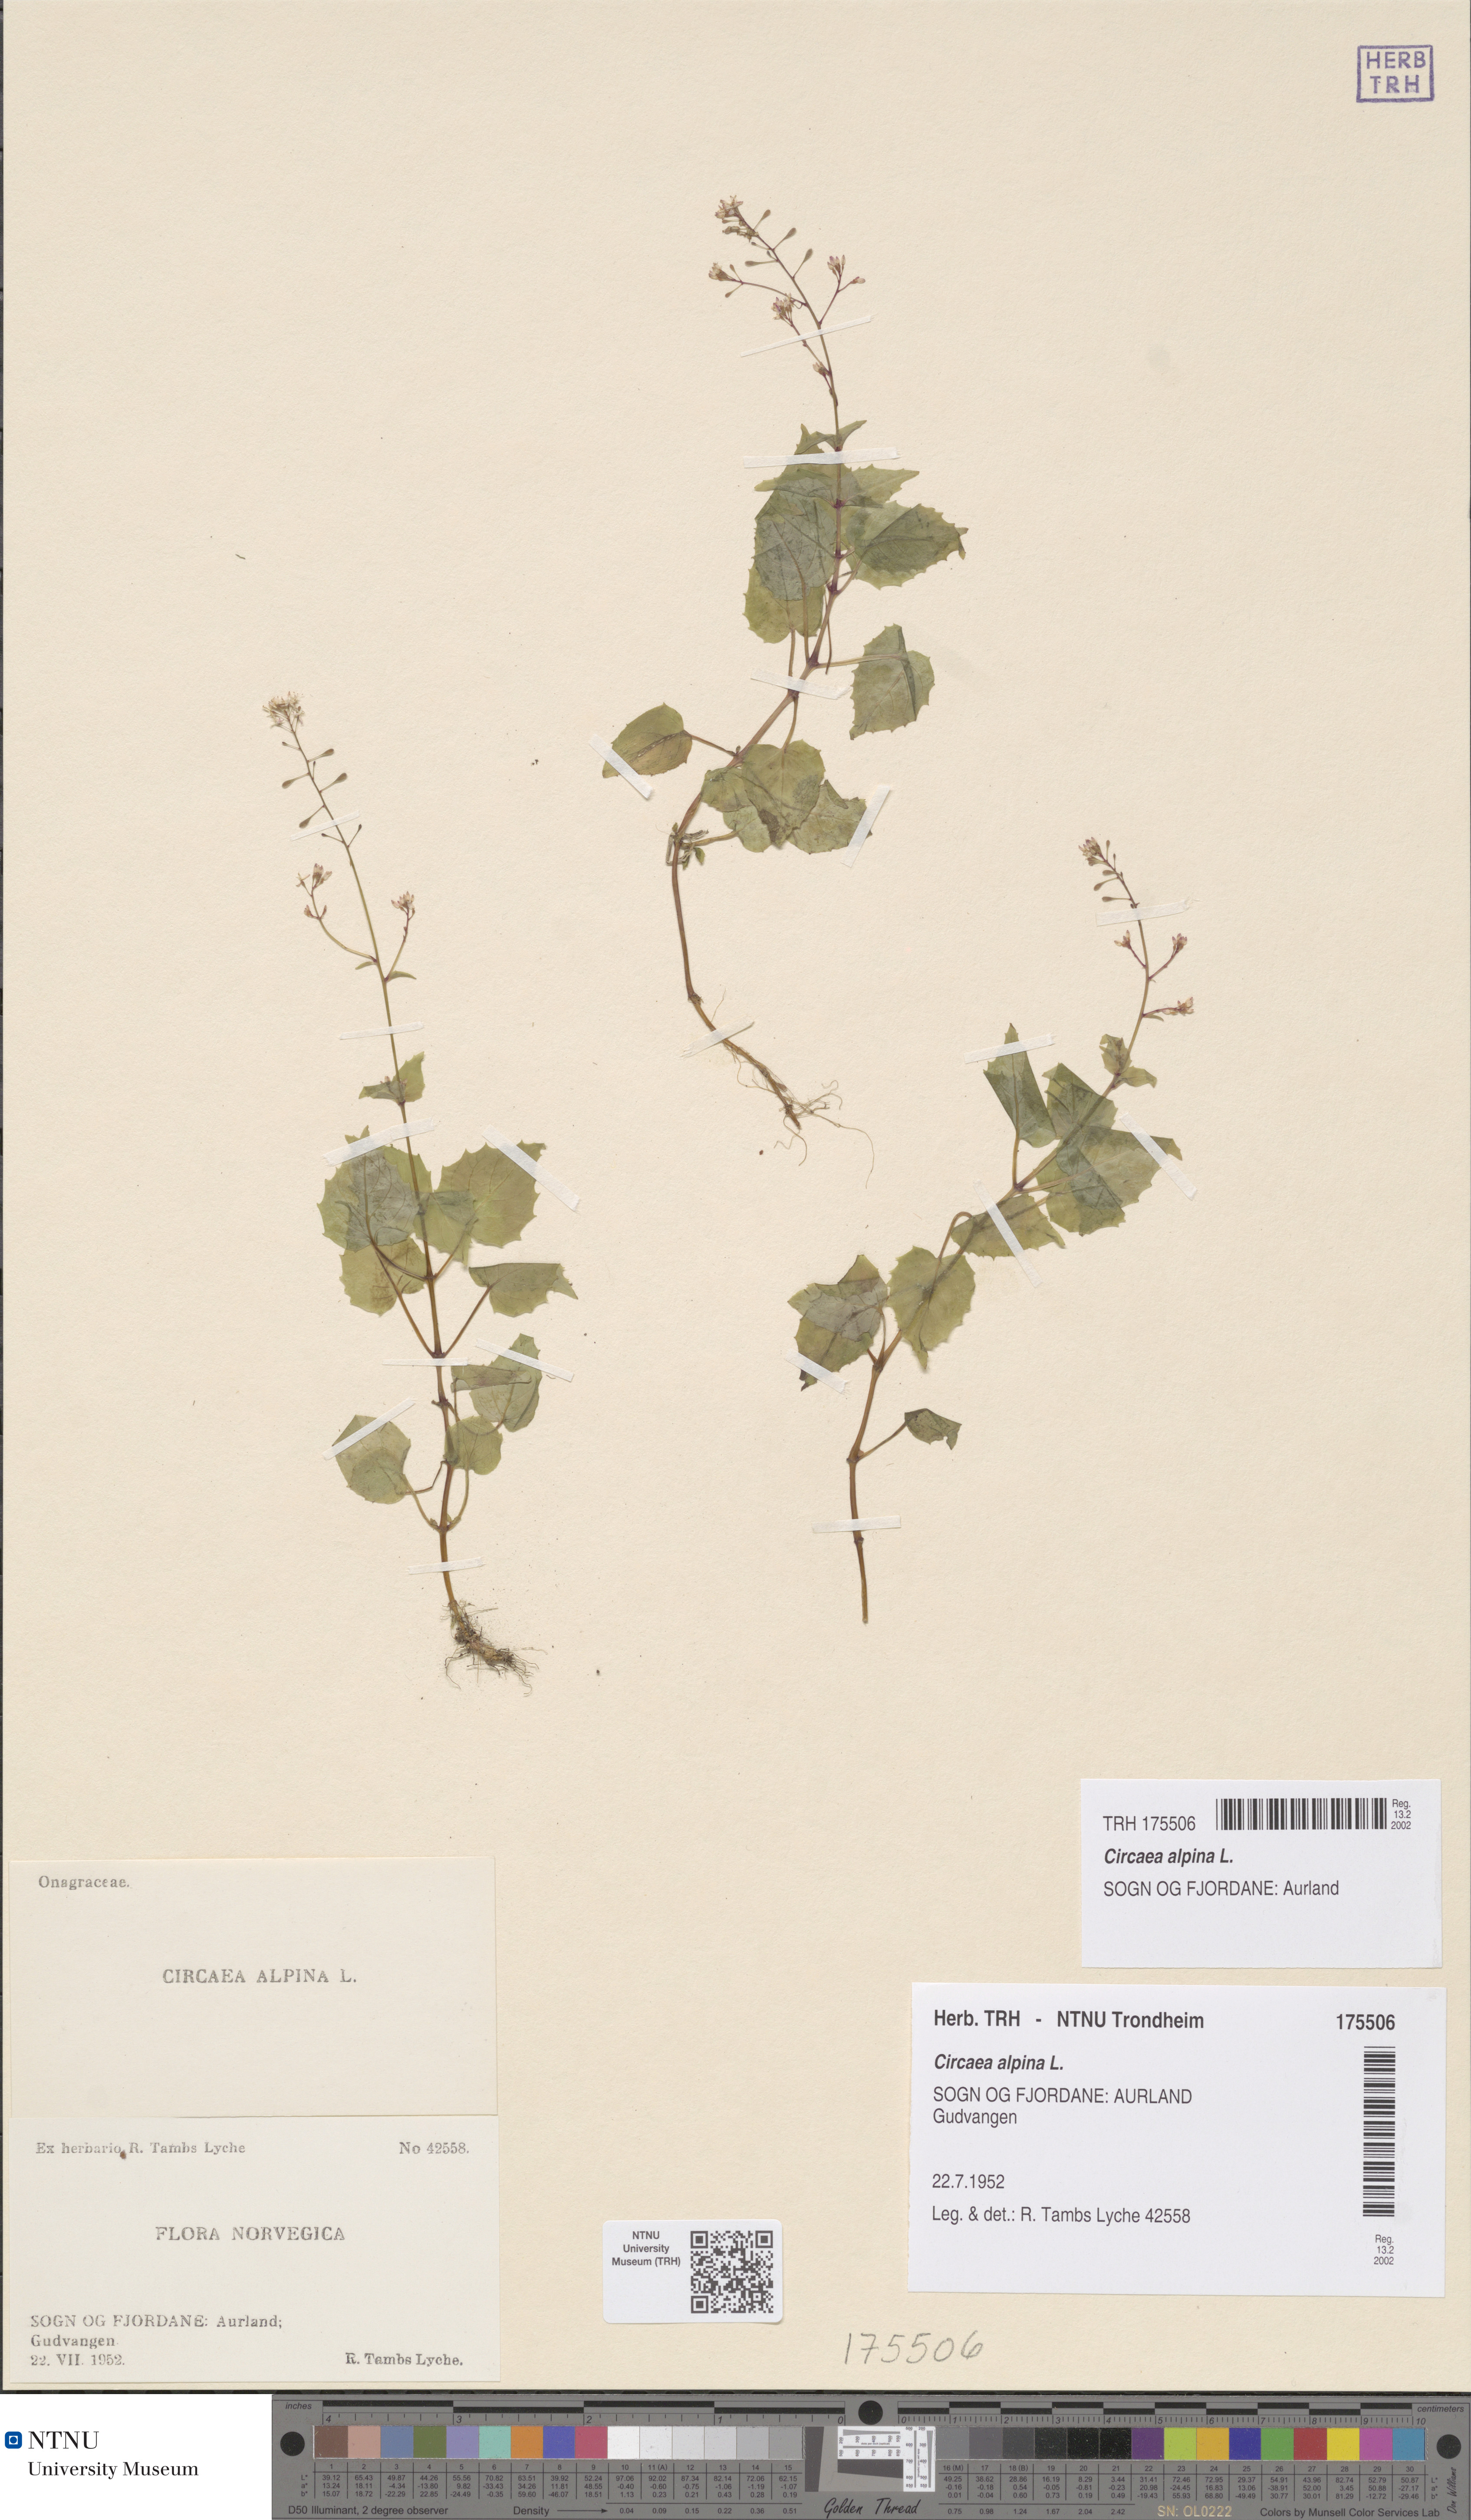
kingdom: Plantae
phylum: Tracheophyta
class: Magnoliopsida
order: Myrtales
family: Onagraceae
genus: Circaea
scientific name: Circaea alpina
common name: Alpine enchanter's-nightshade
